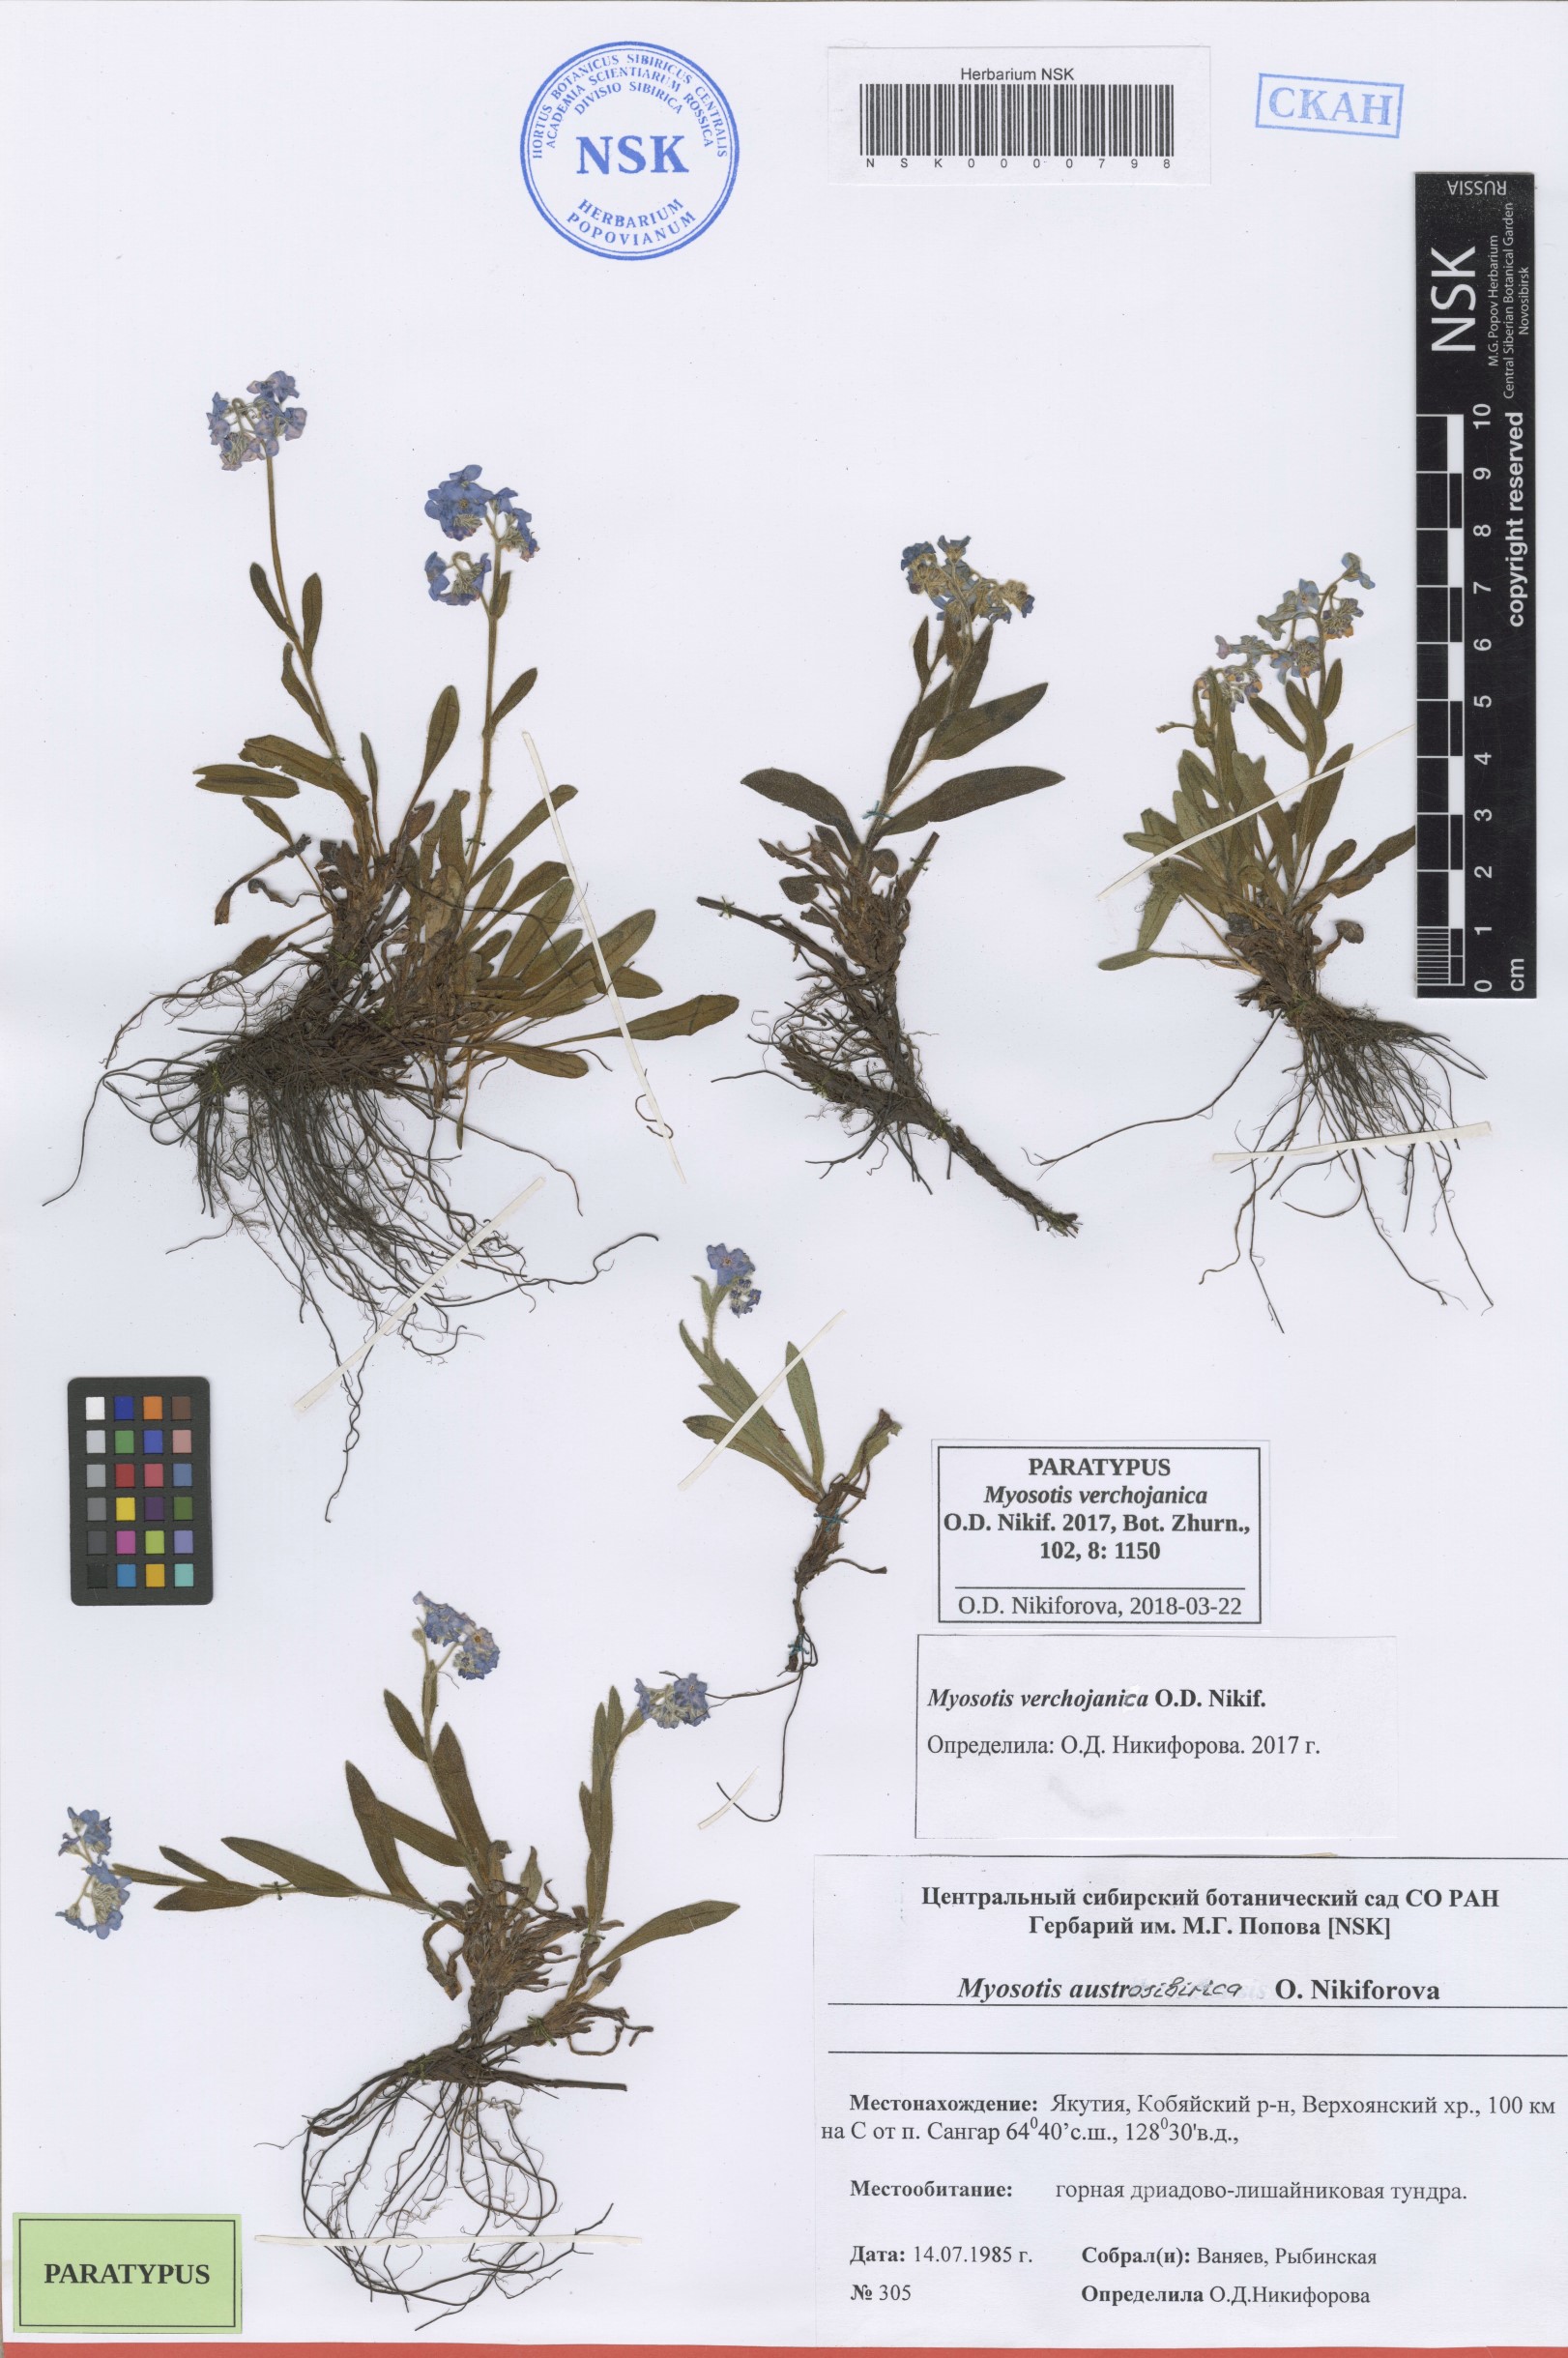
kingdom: Plantae
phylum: Tracheophyta
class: Magnoliopsida
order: Boraginales
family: Boraginaceae
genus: Myosotis
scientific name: Myosotis
